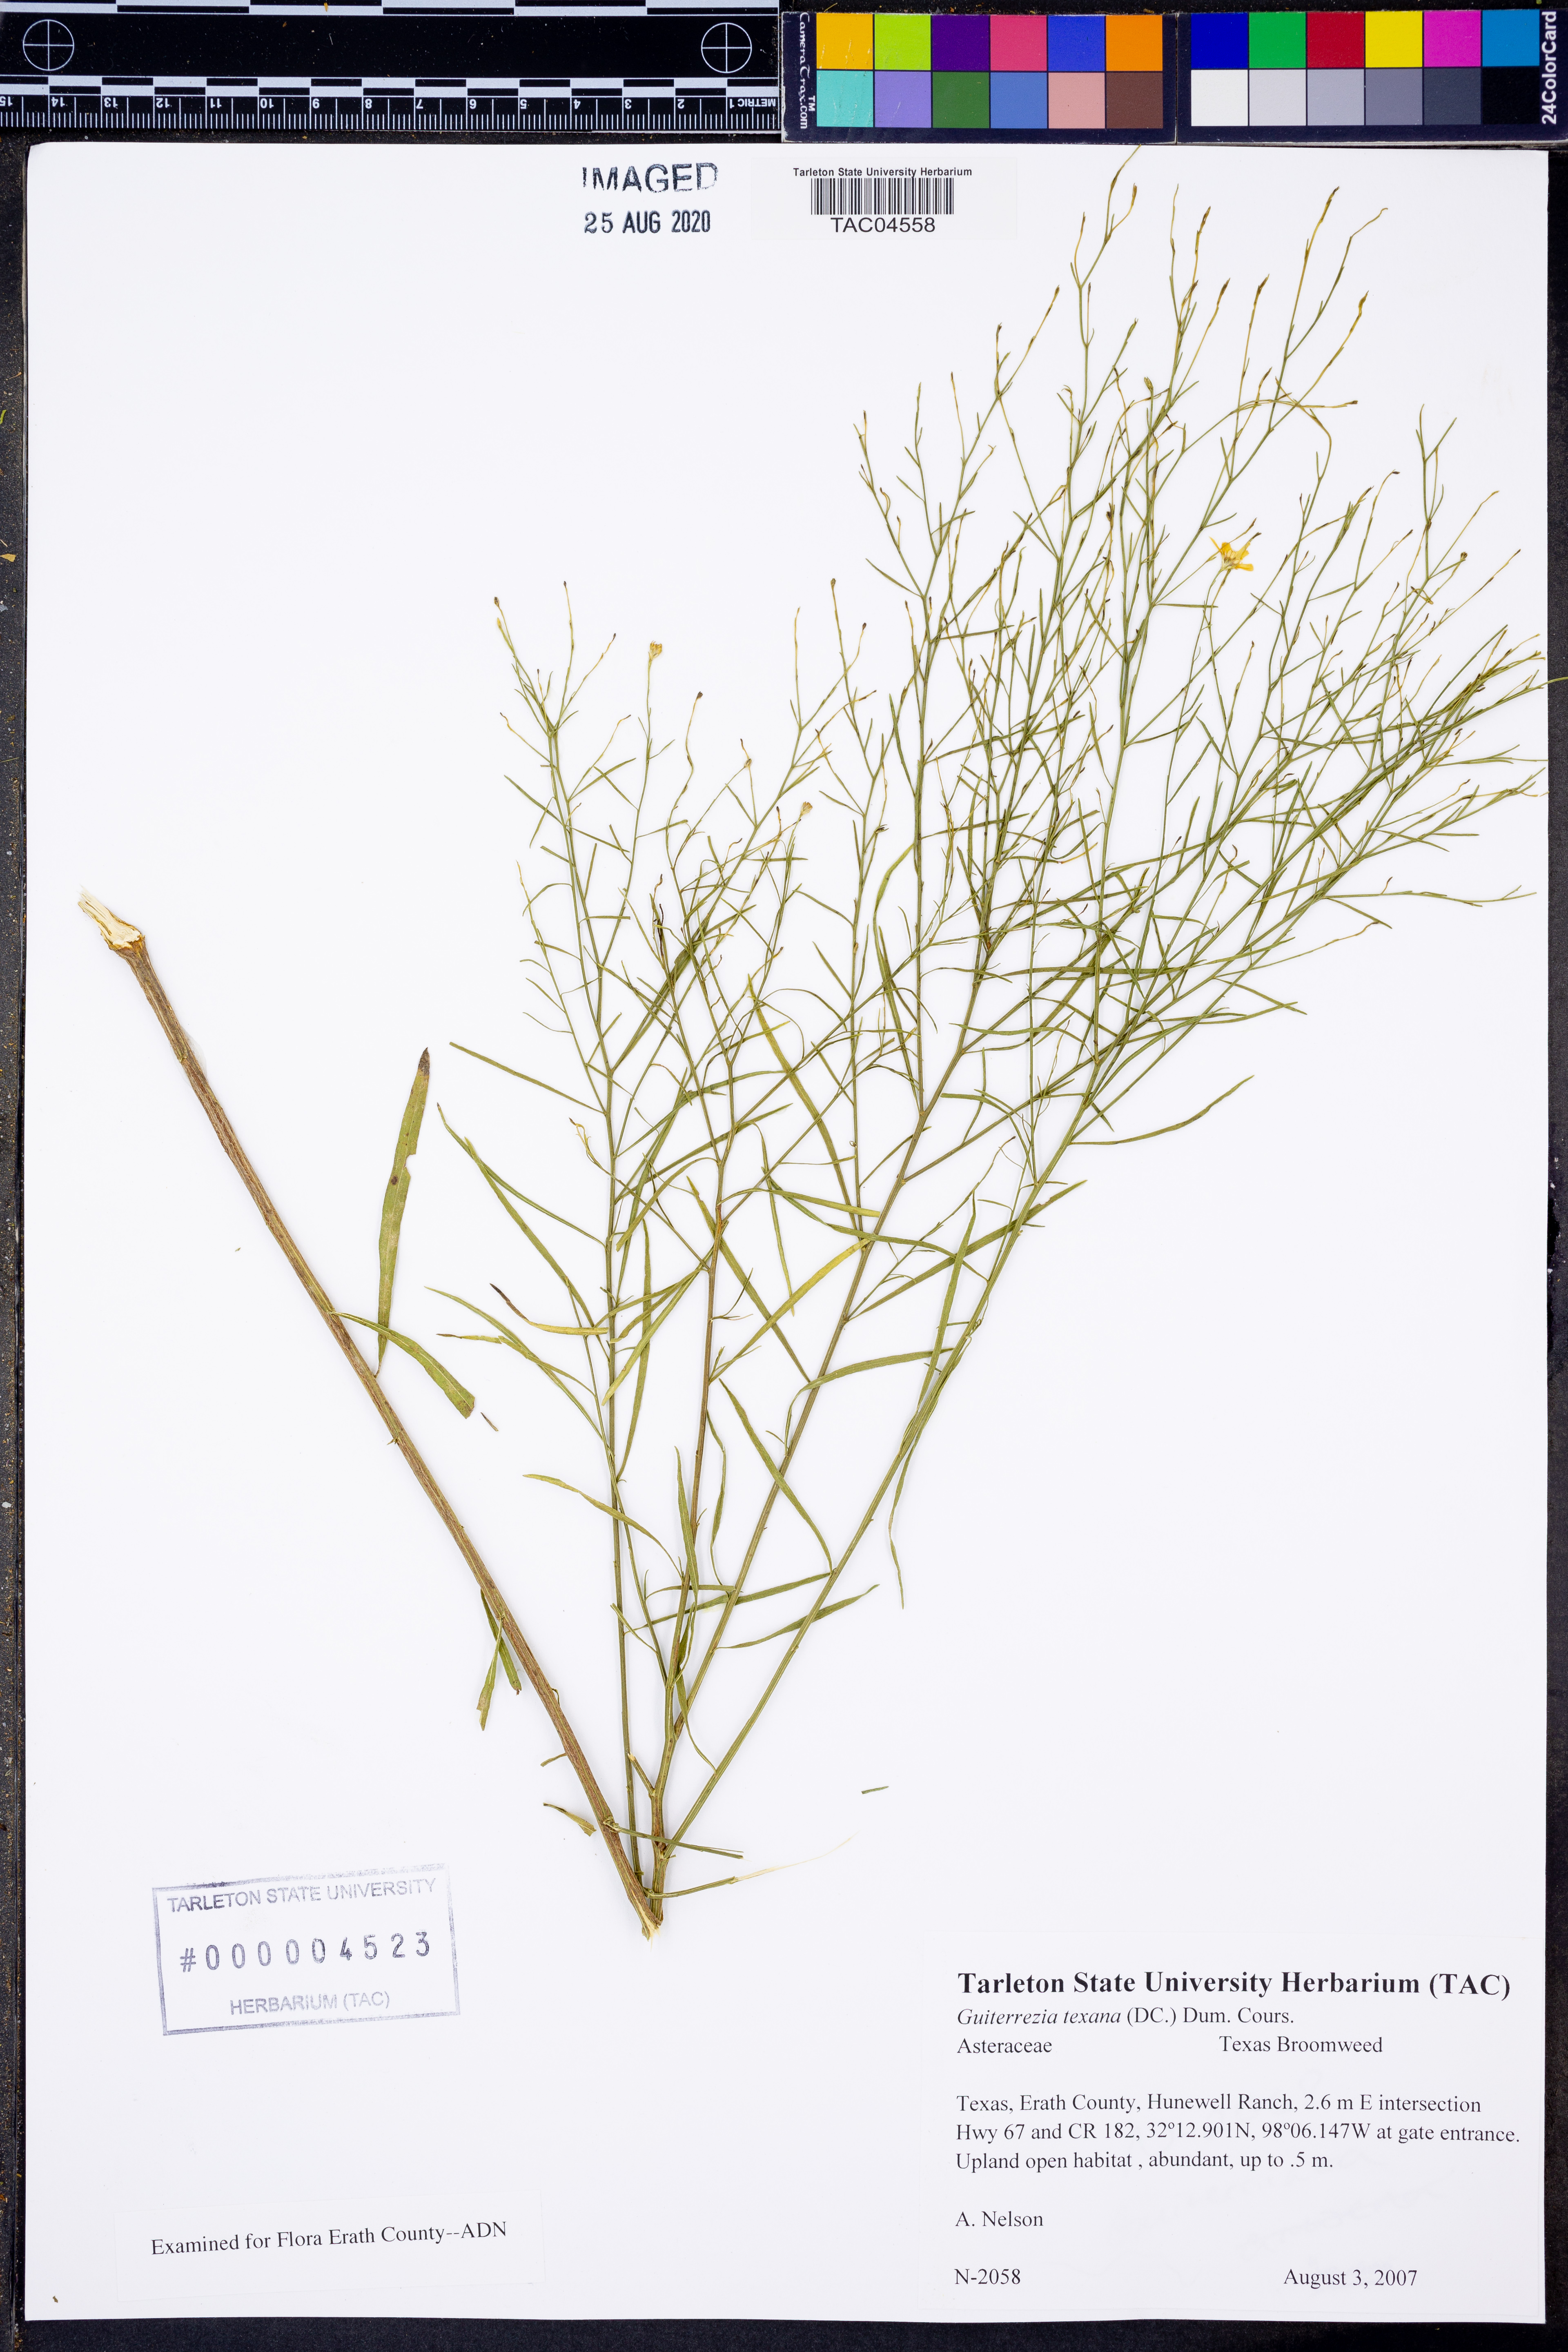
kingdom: Plantae
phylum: Tracheophyta
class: Magnoliopsida
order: Asterales
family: Asteraceae
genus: Gutierrezia
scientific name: Gutierrezia texana
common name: Texas snakeweed
